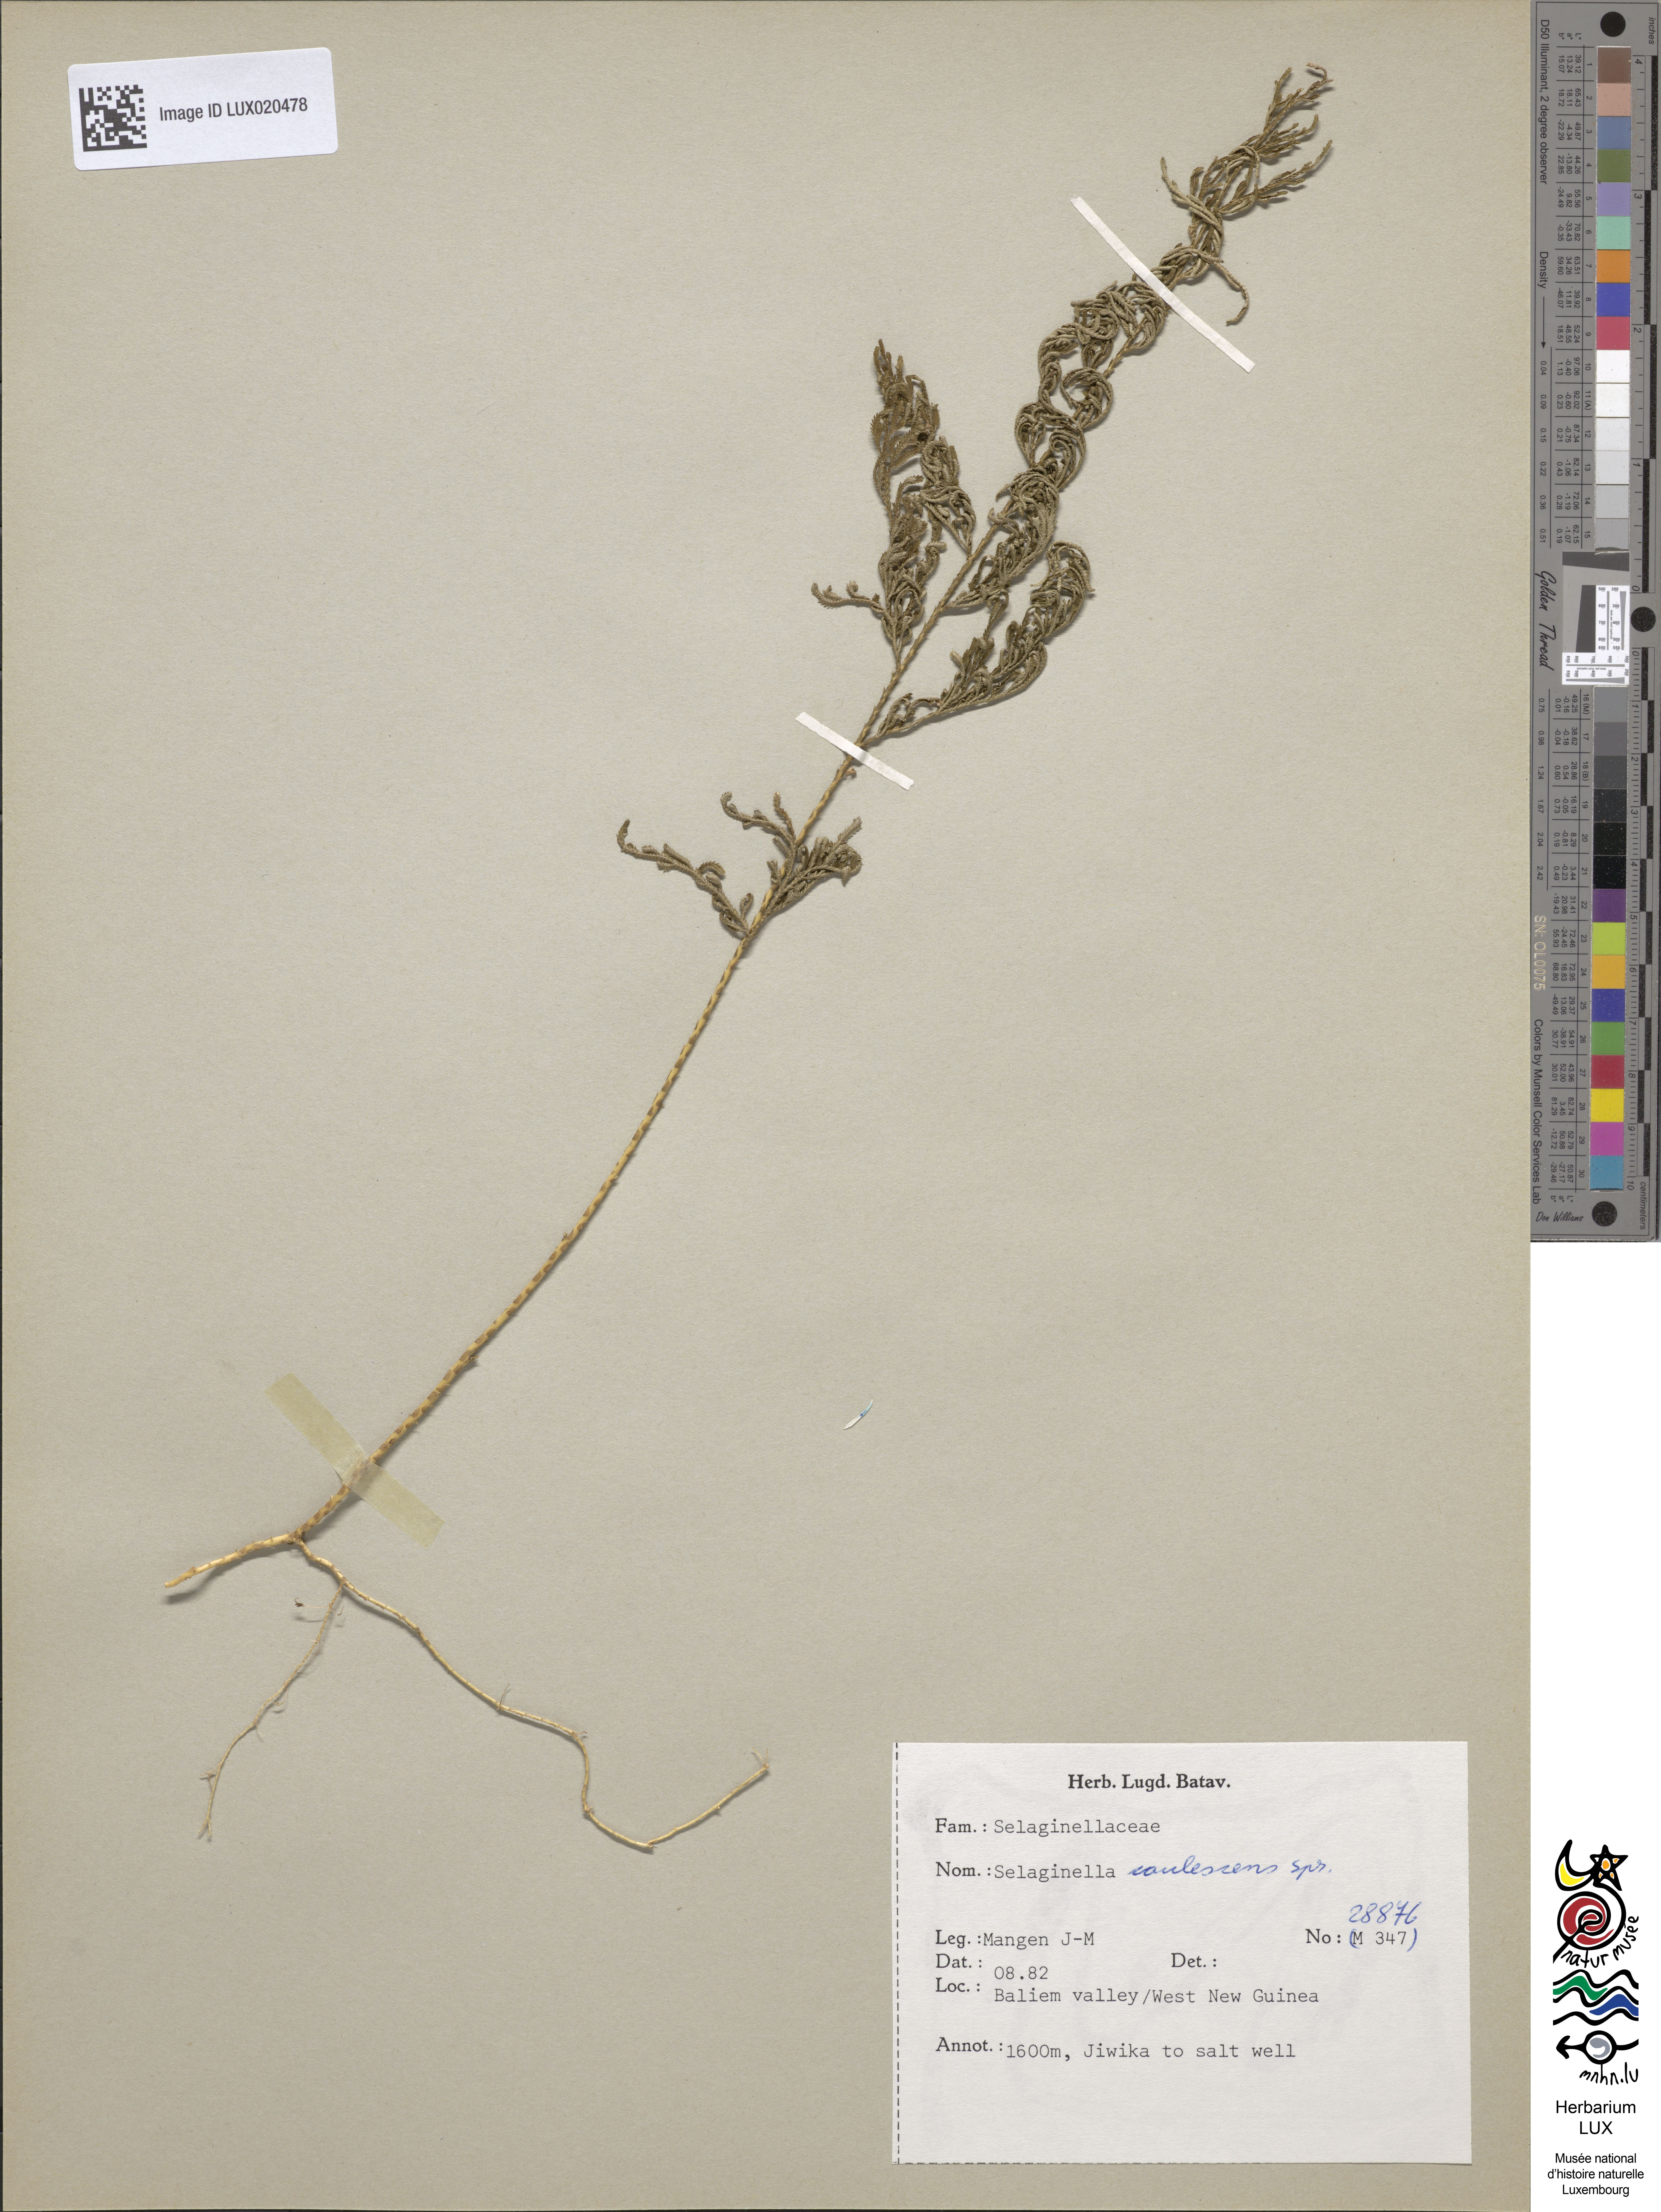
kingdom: Plantae
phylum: Tracheophyta
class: Lycopodiopsida
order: Selaginellales
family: Selaginellaceae
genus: Selaginella
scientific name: Selaginella involvens
